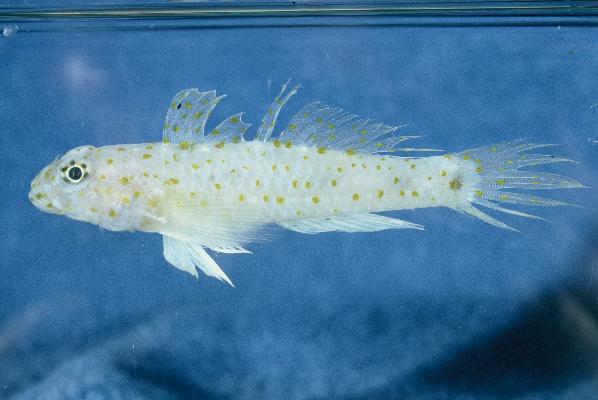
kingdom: Animalia
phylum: Chordata
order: Perciformes
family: Gobiidae
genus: Fusigobius
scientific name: Fusigobius neophytus
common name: Sand goby
